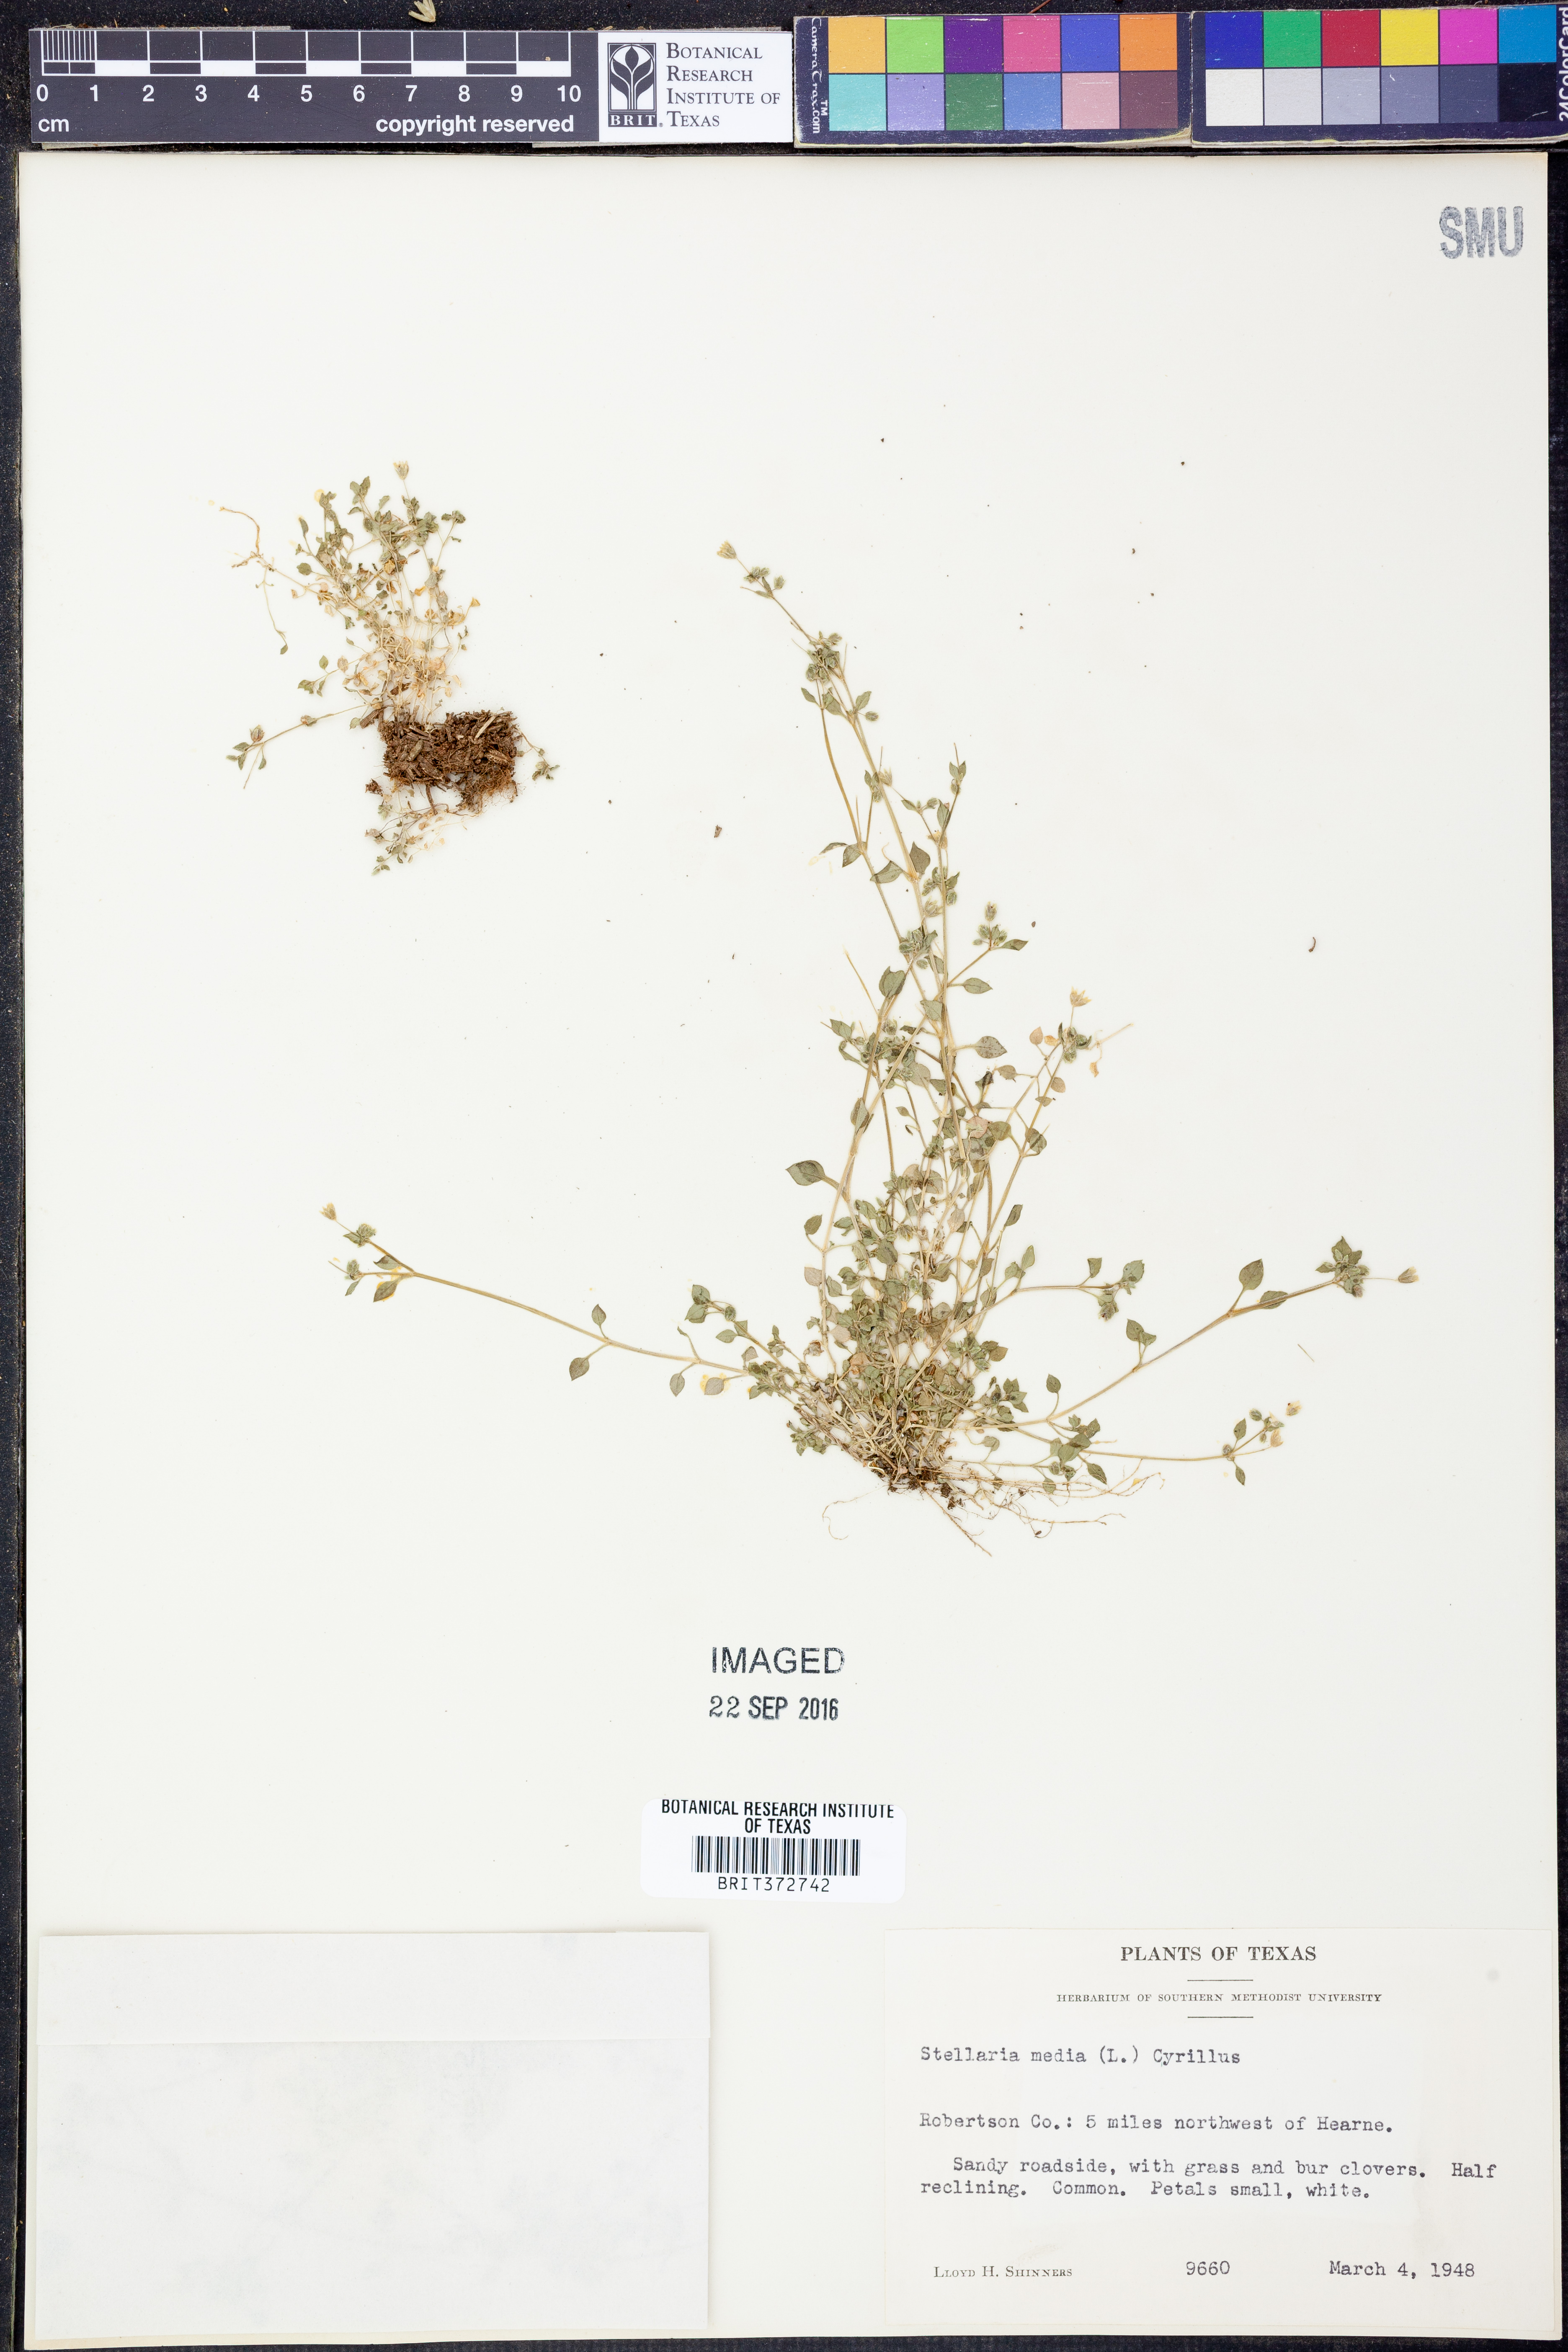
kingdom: Plantae
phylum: Tracheophyta
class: Magnoliopsida
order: Caryophyllales
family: Caryophyllaceae
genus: Stellaria
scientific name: Stellaria media
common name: Common chickweed
